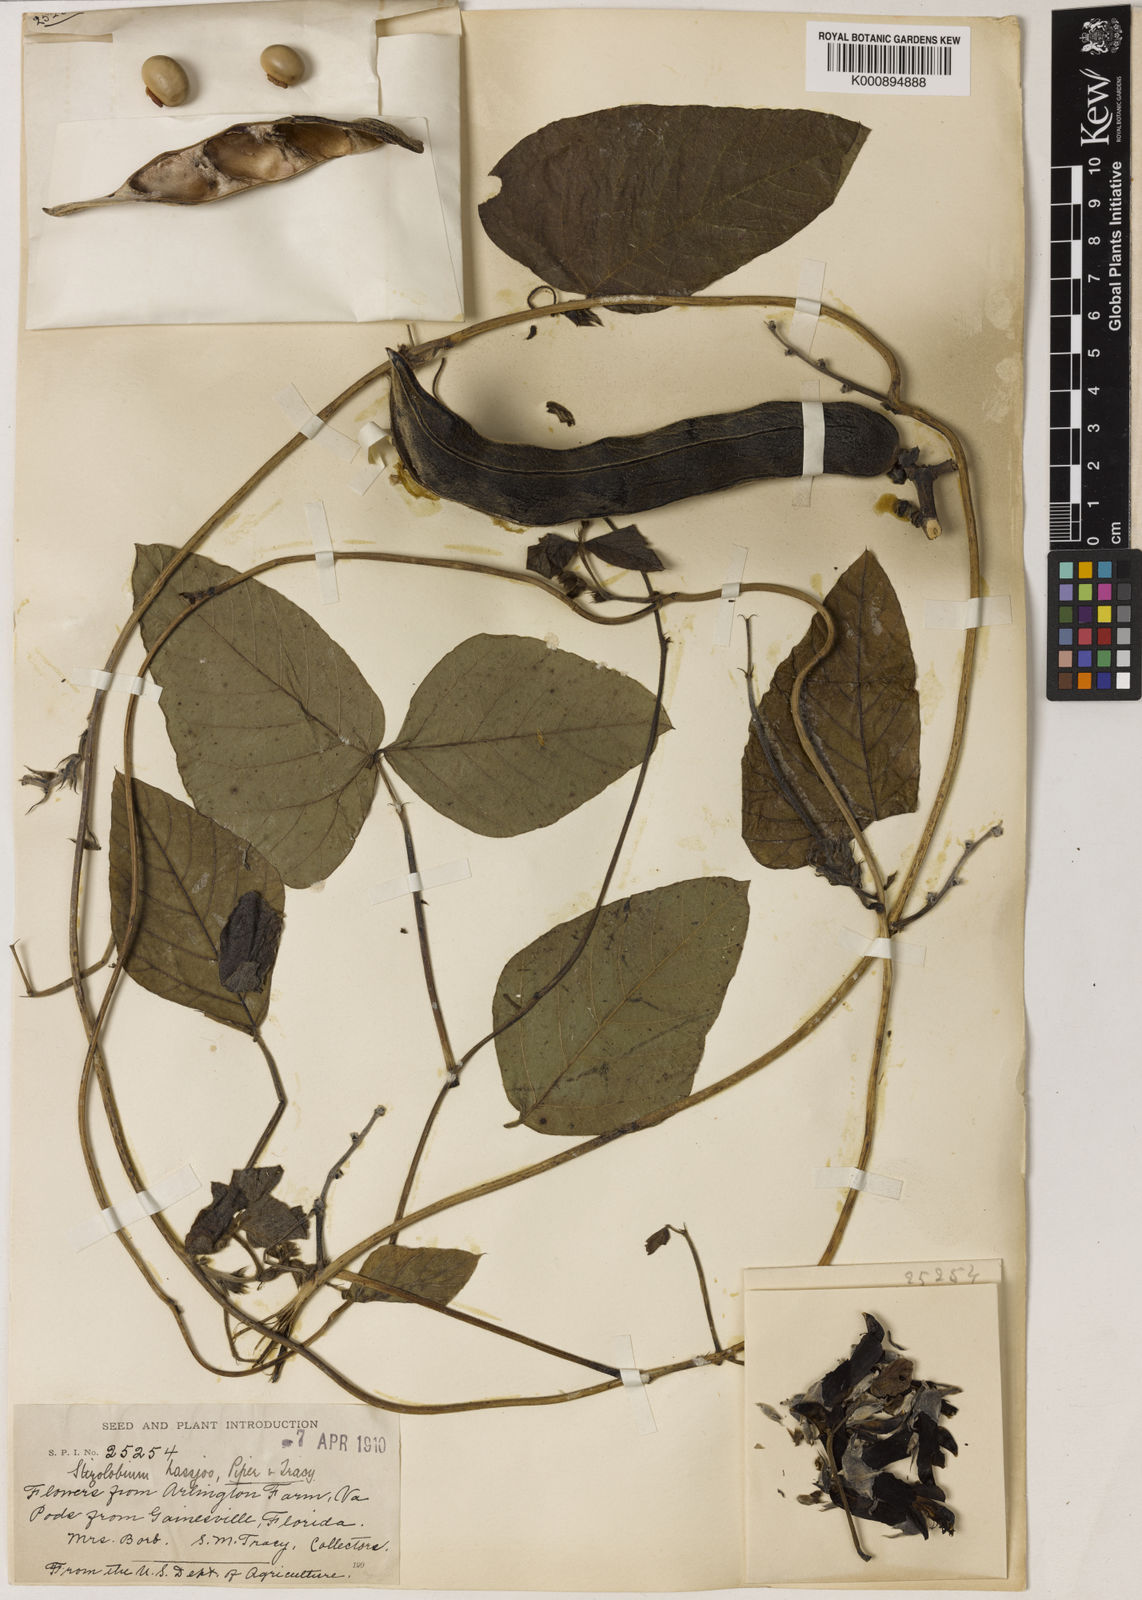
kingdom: Plantae
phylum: Tracheophyta
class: Magnoliopsida
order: Fabales
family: Fabaceae
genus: Mucuna
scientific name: Mucuna pruriens
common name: Cow-itch
